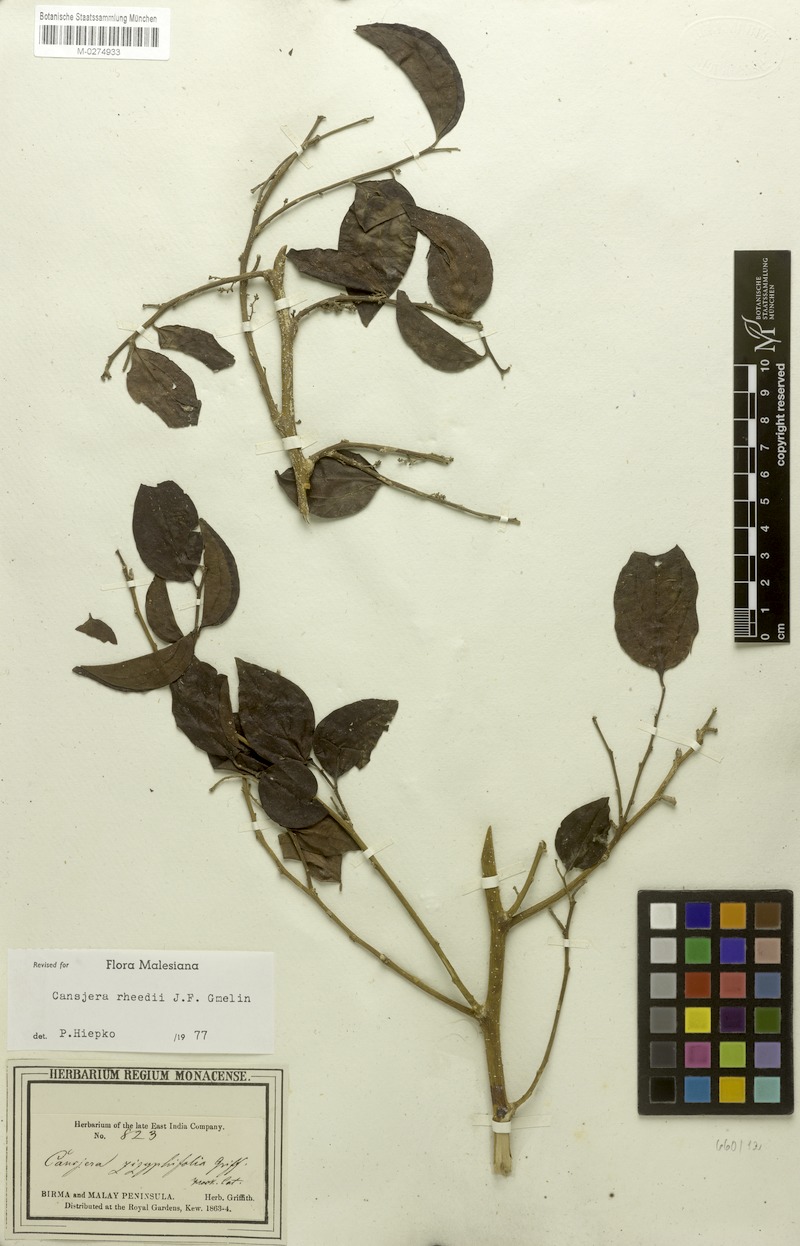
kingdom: Plantae
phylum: Tracheophyta
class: Magnoliopsida
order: Santalales
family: Opiliaceae
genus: Cansjera
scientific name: Cansjera rheedei
